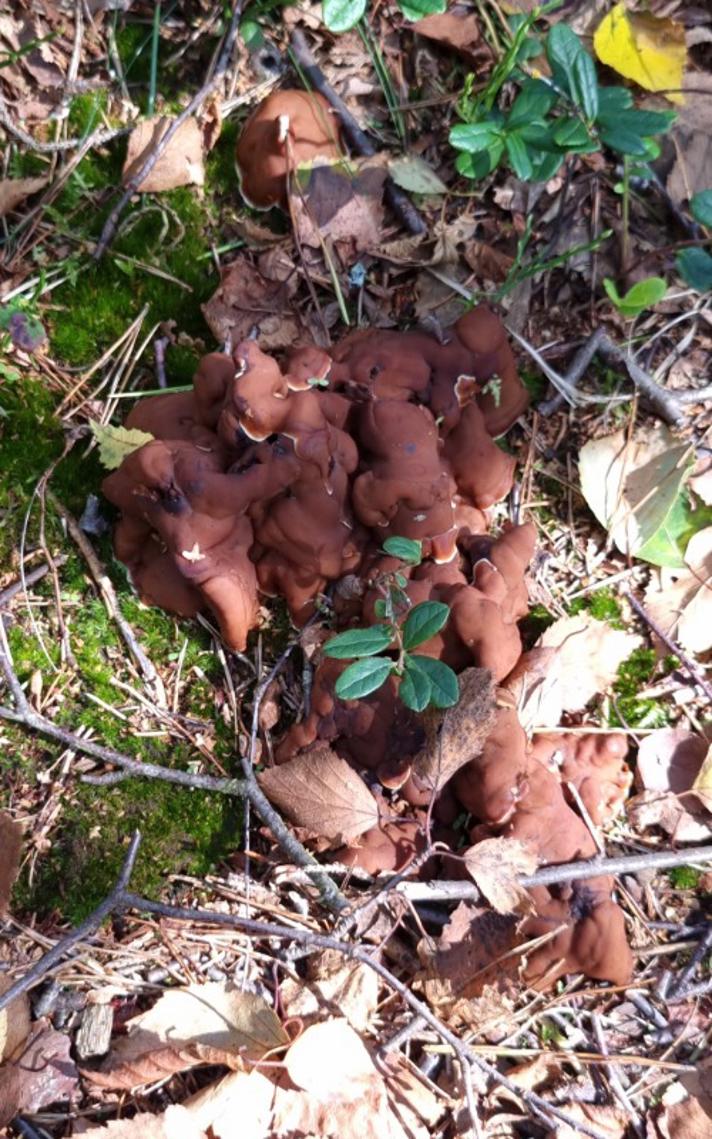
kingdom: Fungi
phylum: Ascomycota
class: Pezizomycetes
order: Pezizales
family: Rhizinaceae
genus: Rhizina
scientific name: Rhizina undulata
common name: rodmorkel
